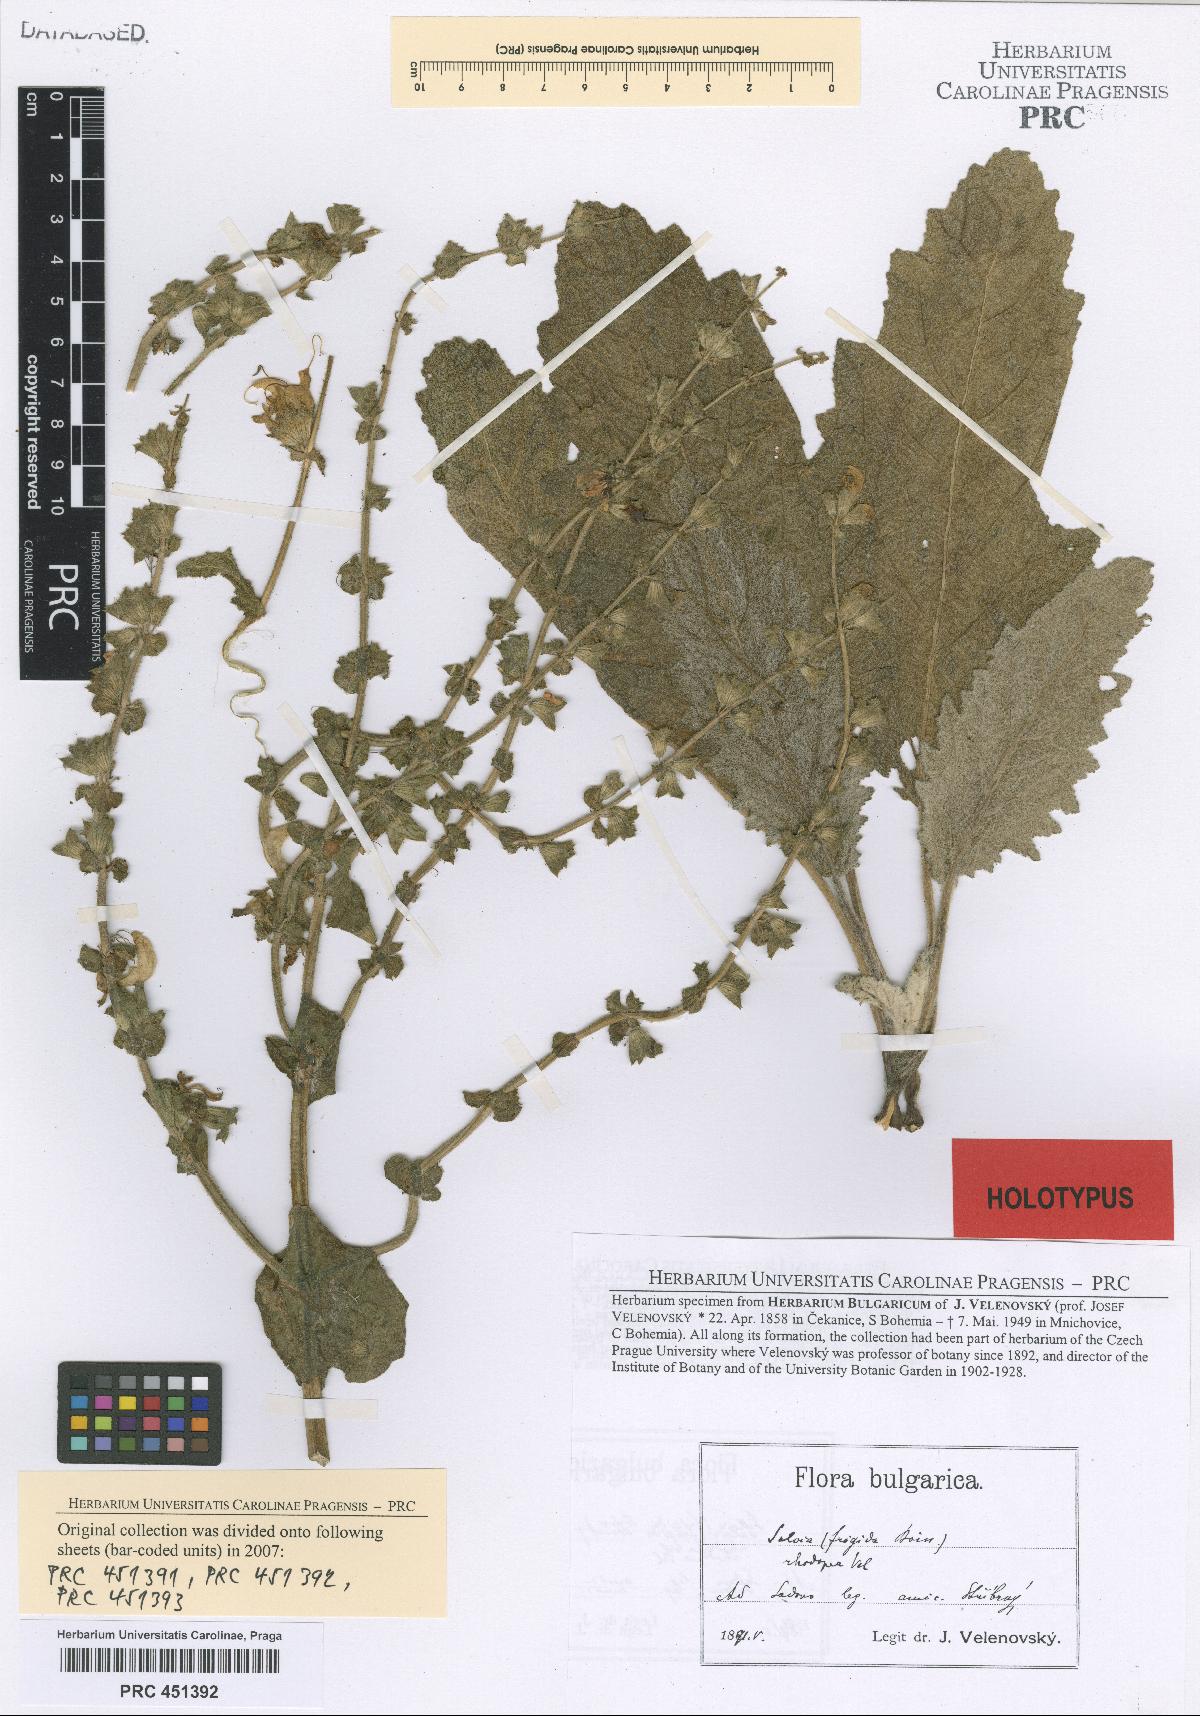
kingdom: Plantae
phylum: Tracheophyta
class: Magnoliopsida
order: Lamiales
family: Lamiaceae
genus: Salvia
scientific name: Salvia argentea
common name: Silver sage
